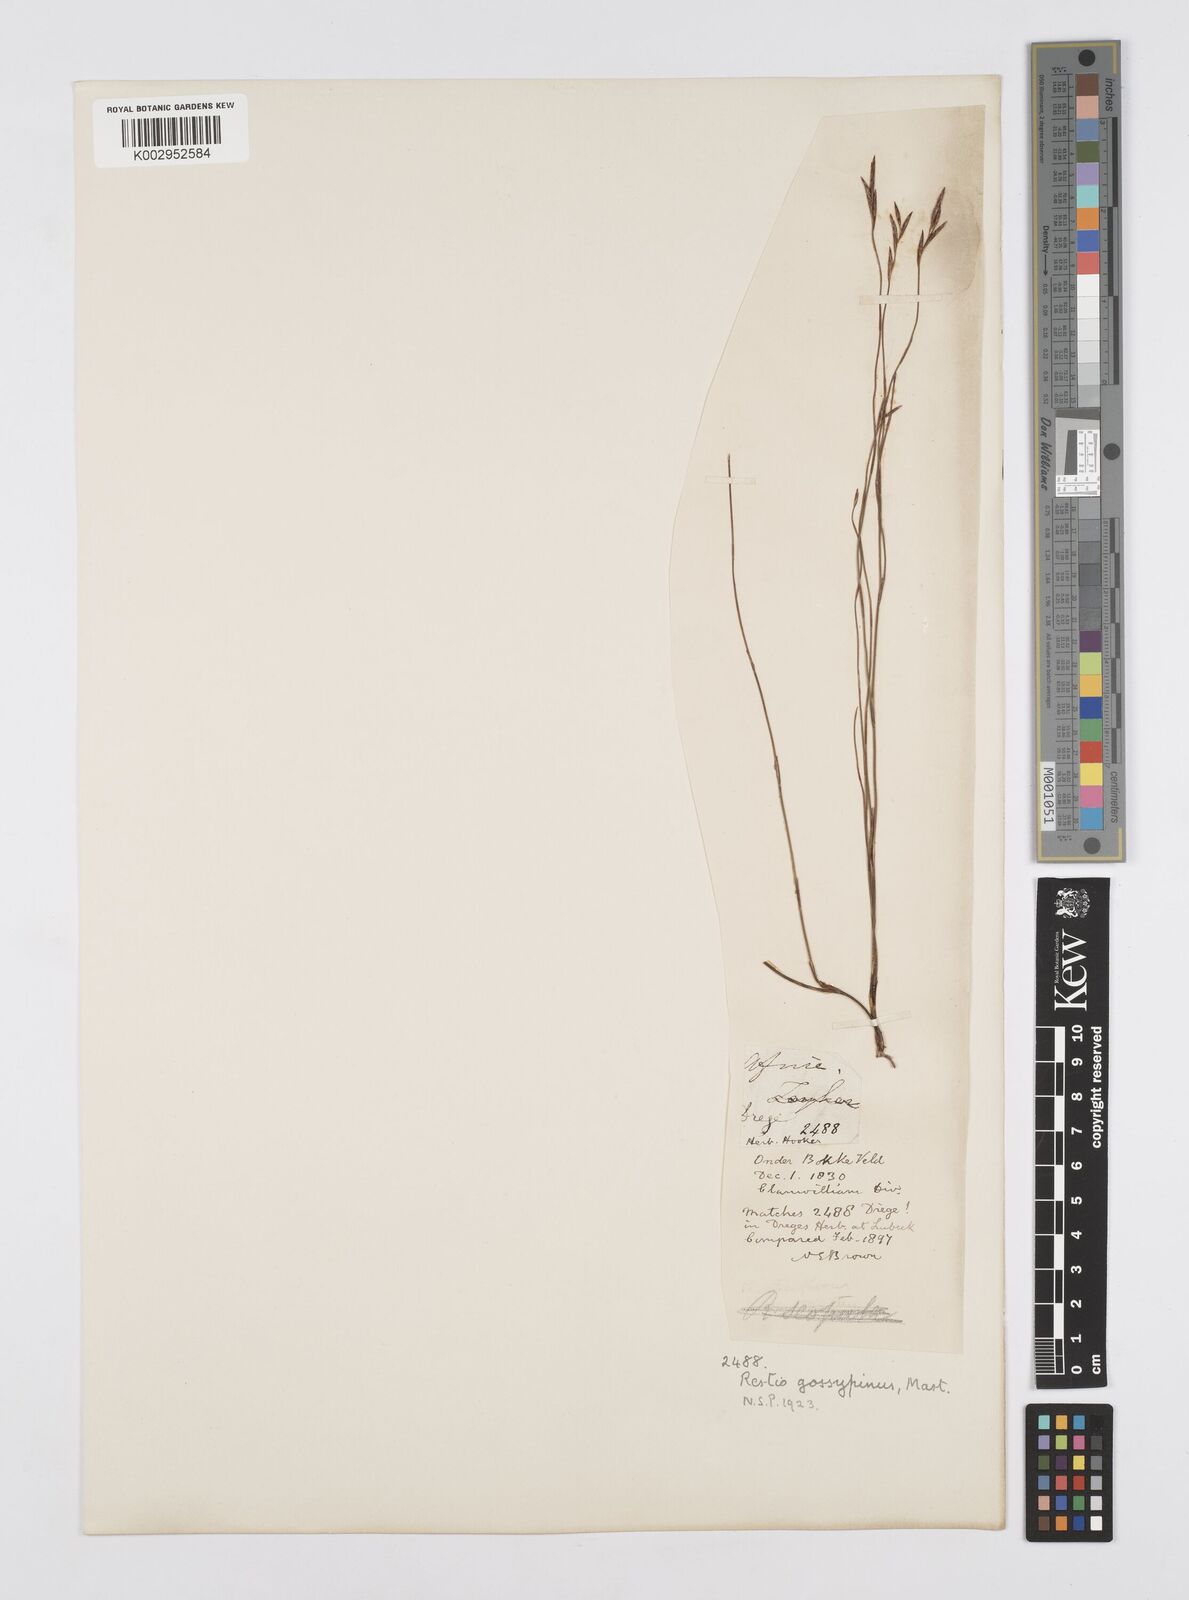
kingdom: Plantae
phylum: Tracheophyta
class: Liliopsida
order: Poales
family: Restionaceae
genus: Restio
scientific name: Restio gossypinus
